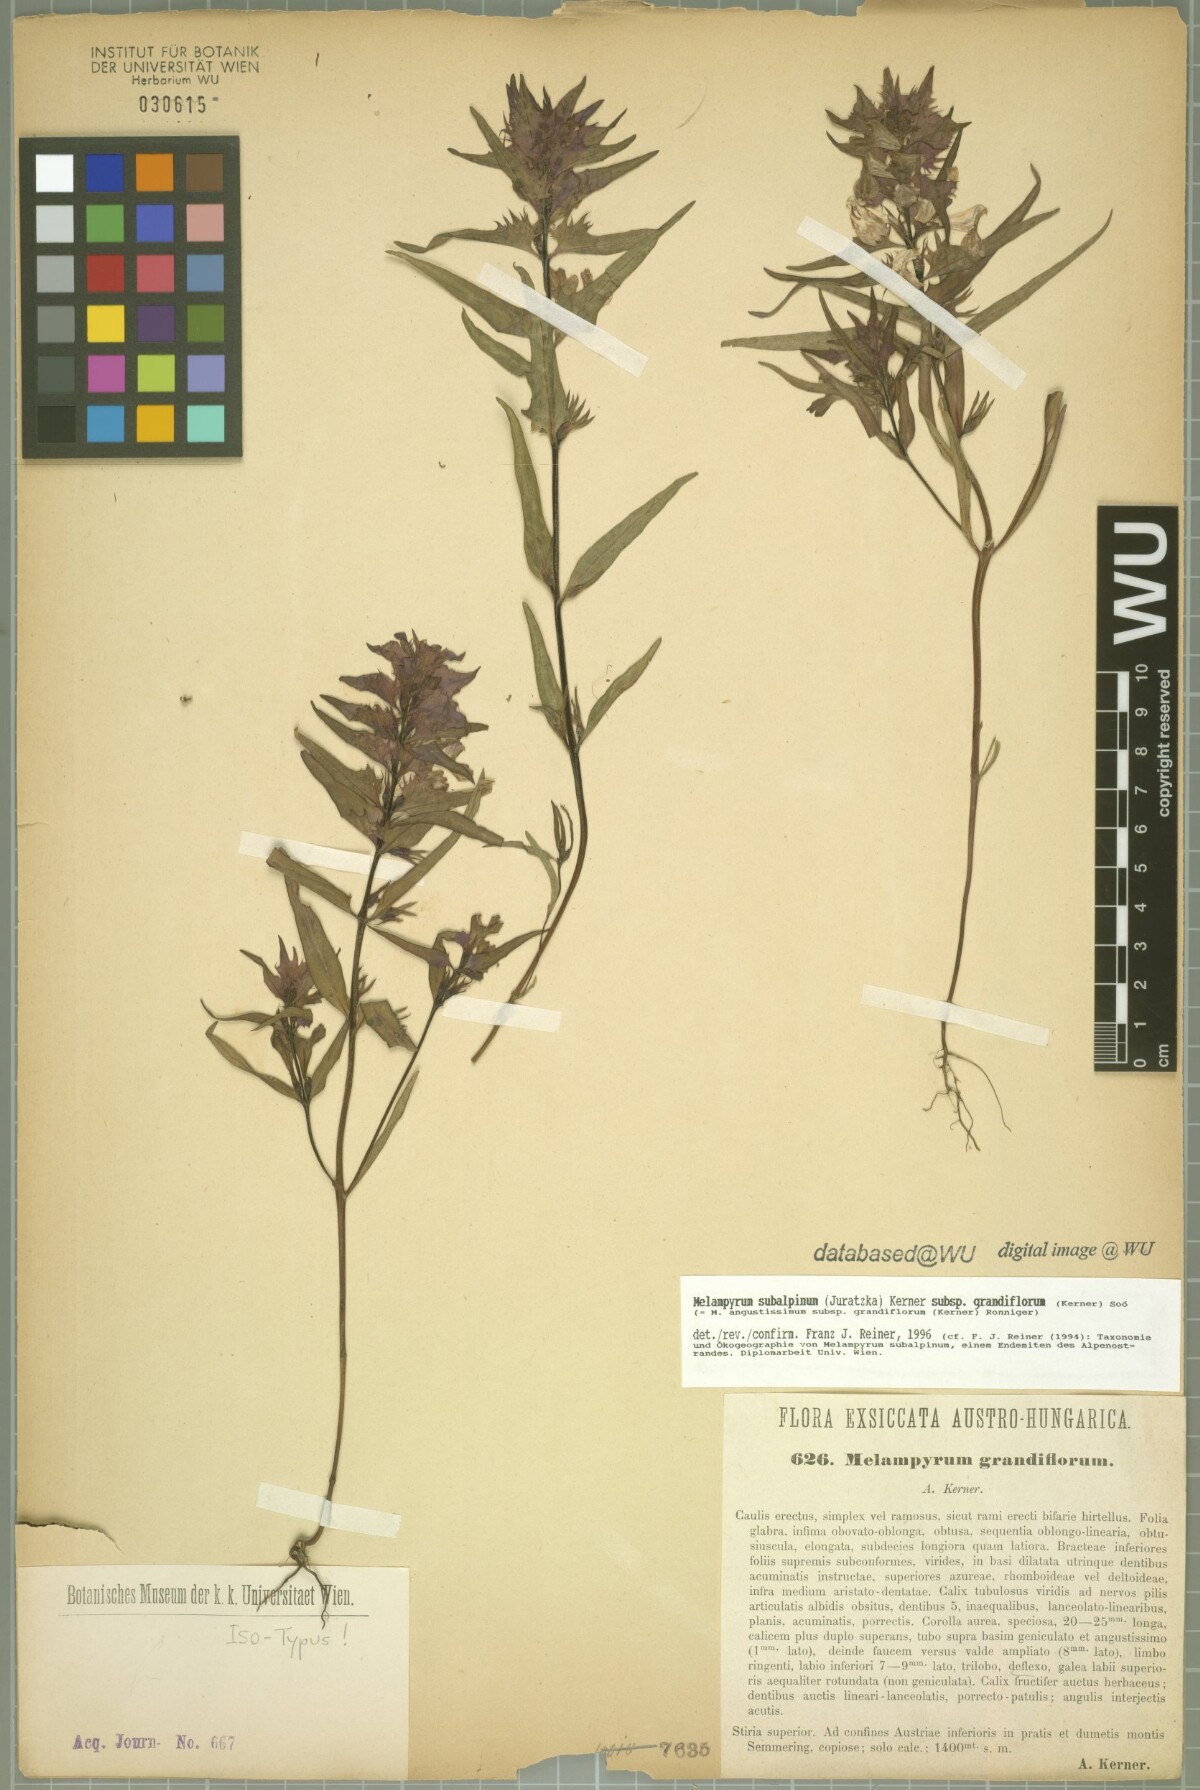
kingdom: Plantae
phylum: Tracheophyta
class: Magnoliopsida
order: Lamiales
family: Orobanchaceae
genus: Melampyrum
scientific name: Melampyrum subalpinum
